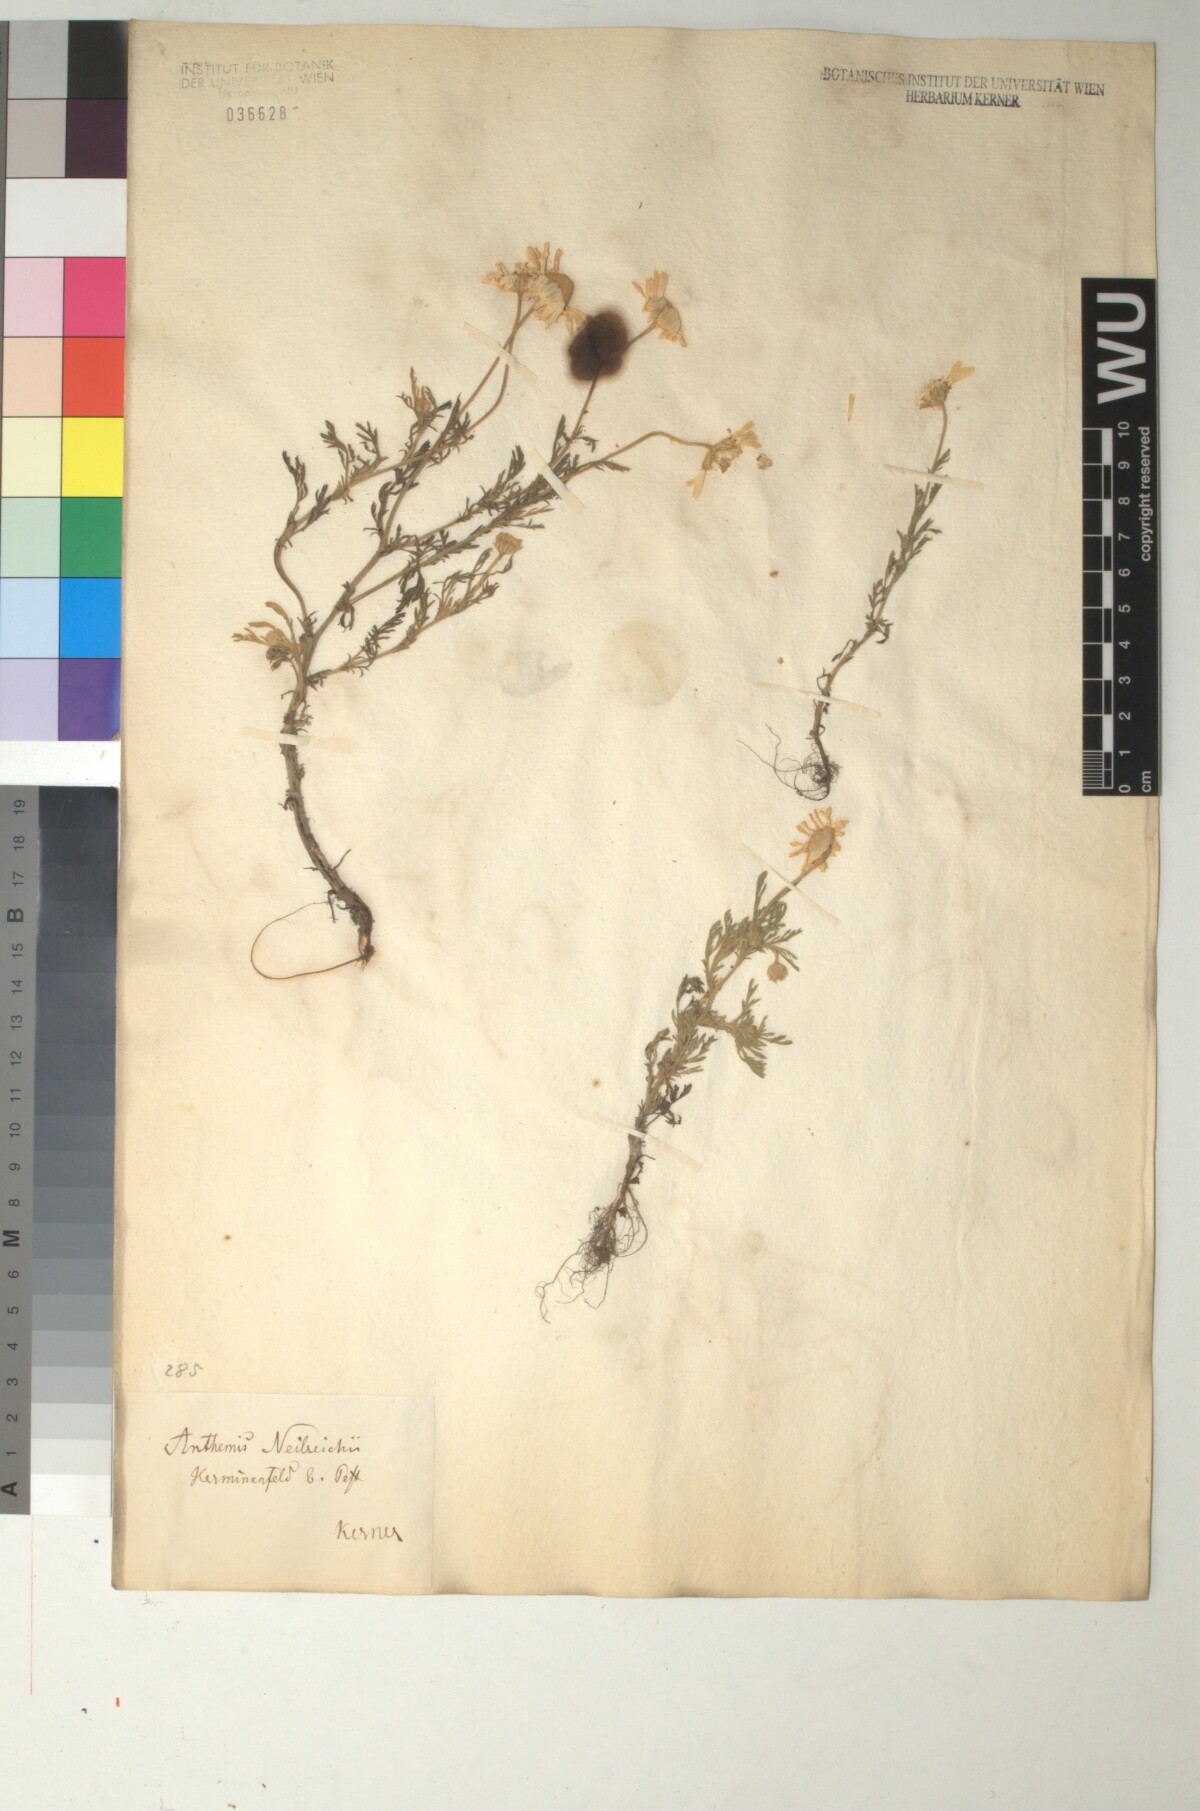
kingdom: Plantae
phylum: Tracheophyta
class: Magnoliopsida
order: Asterales
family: Asteraceae
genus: Anthemis
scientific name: Anthemis ruthenica
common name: Eastern chamomile
